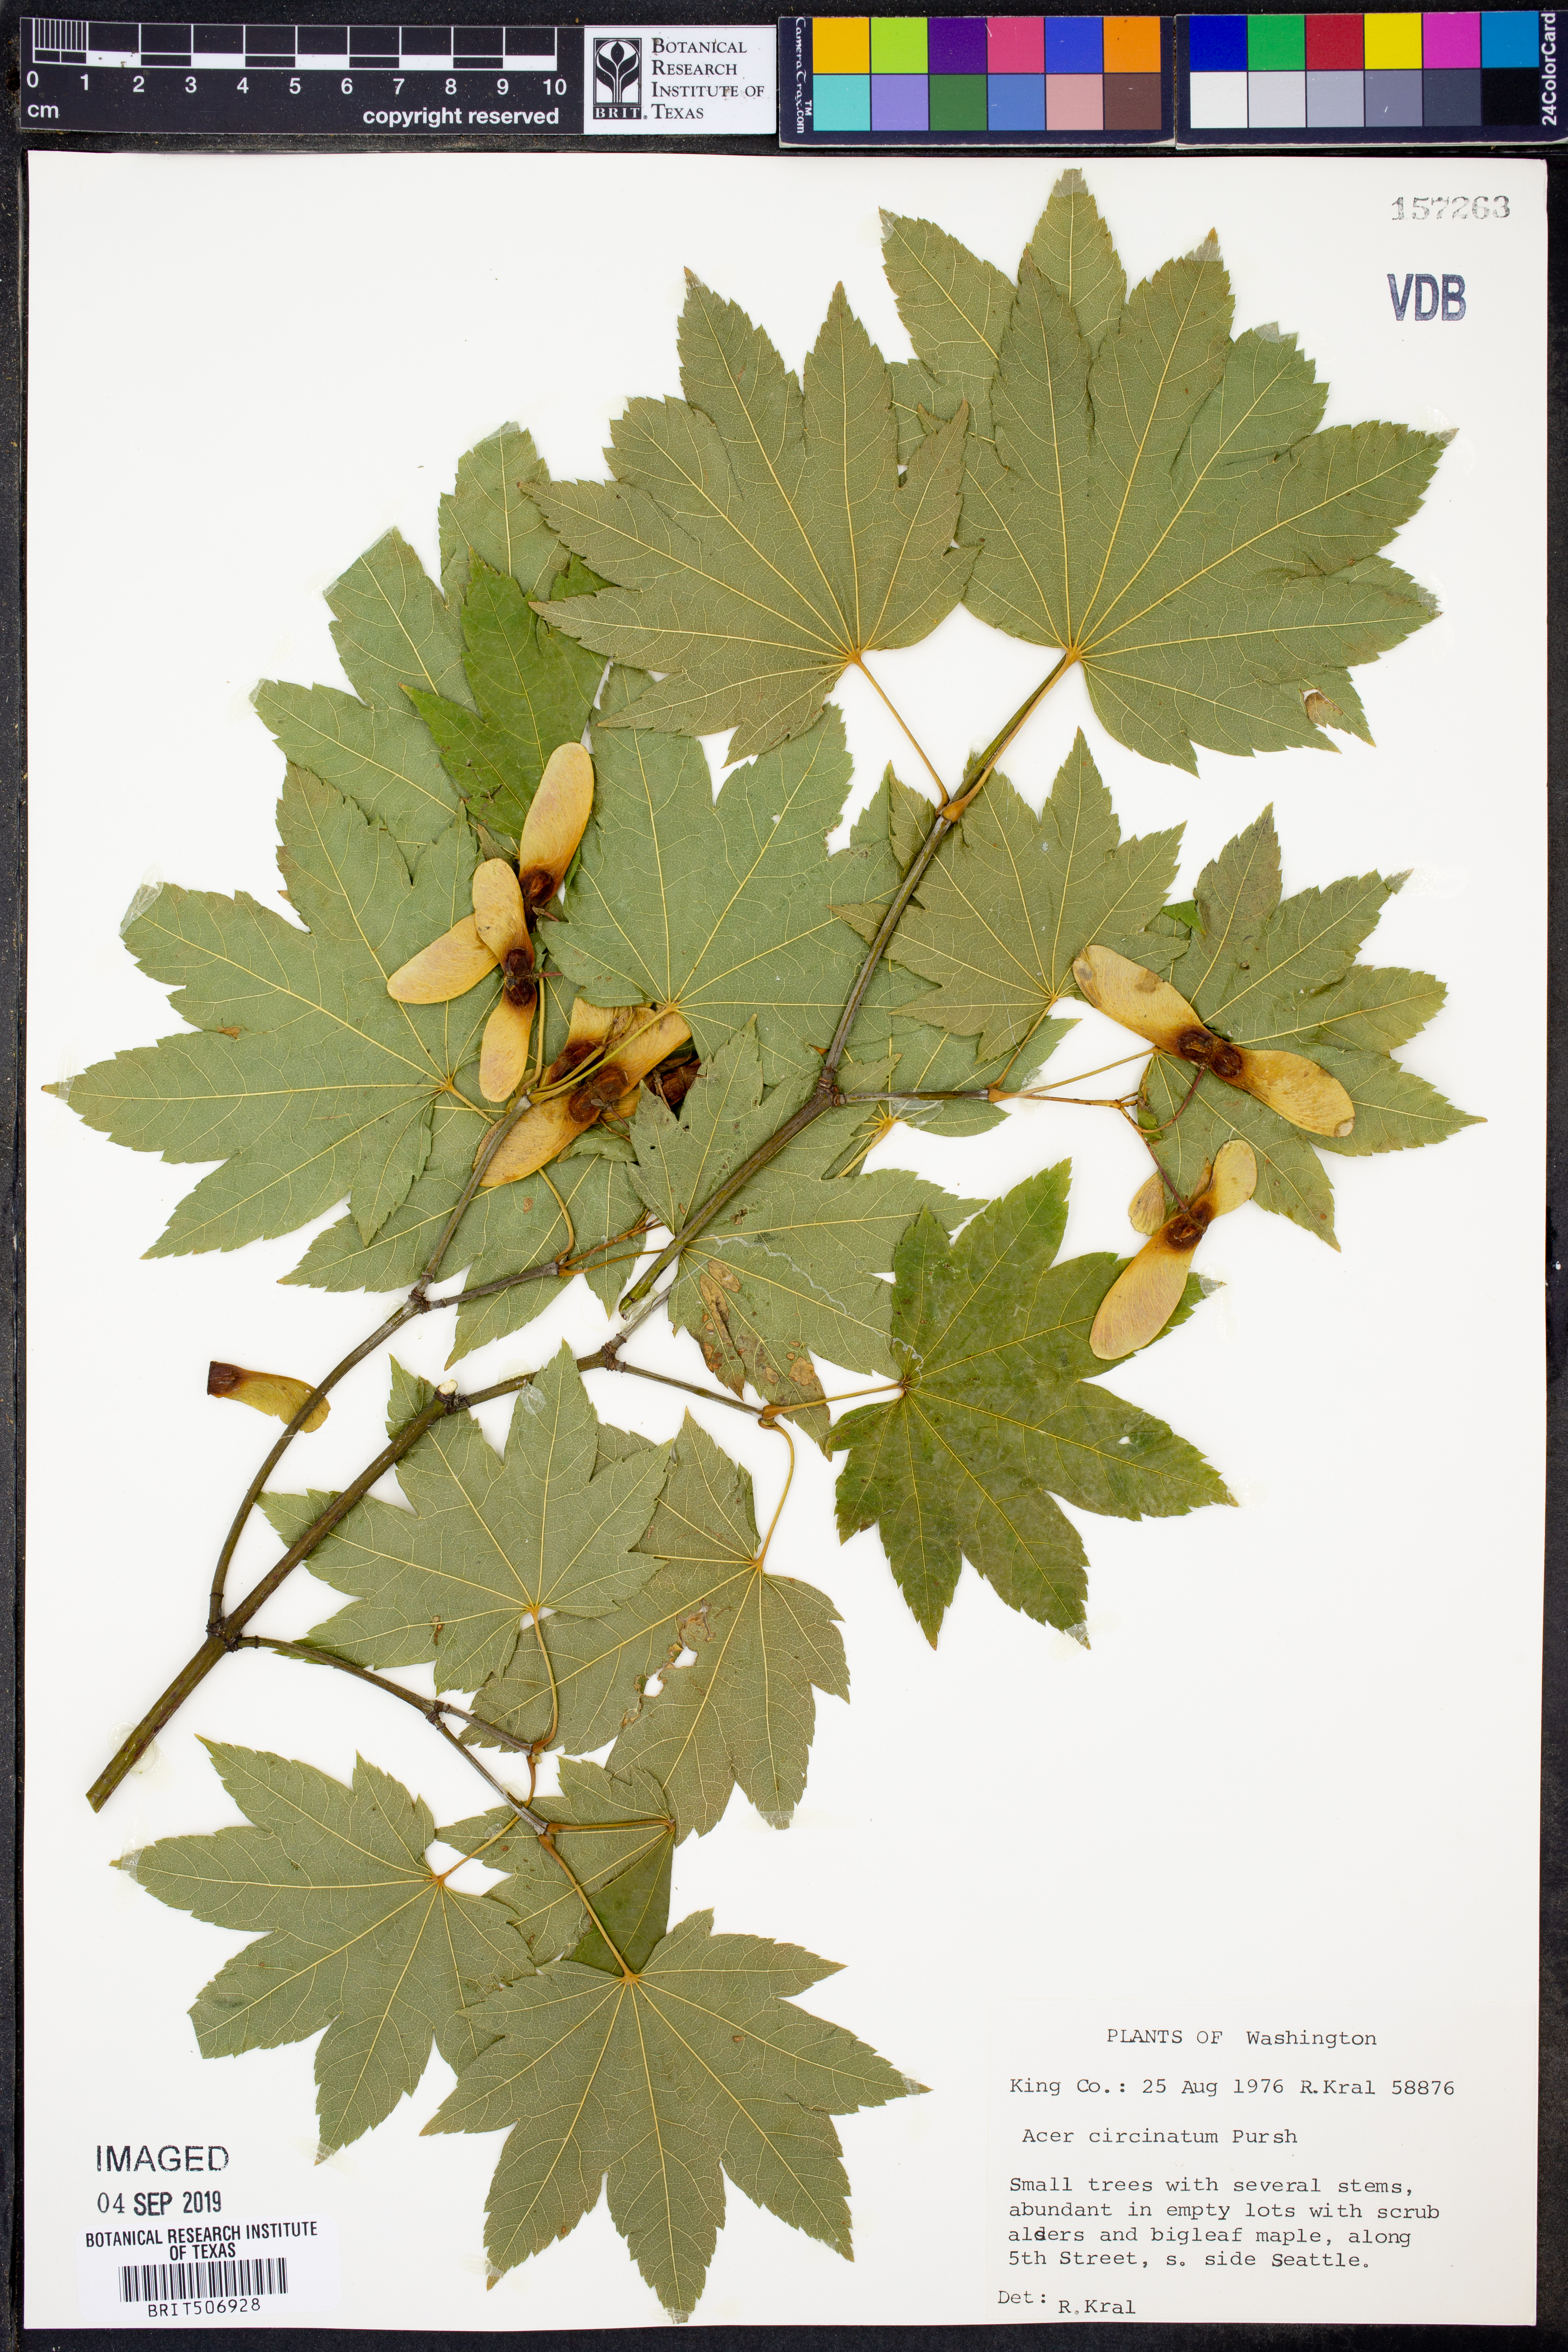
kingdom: Plantae
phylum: Tracheophyta
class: Magnoliopsida
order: Sapindales
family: Sapindaceae
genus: Acer
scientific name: Acer circinatum
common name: Vine maple
